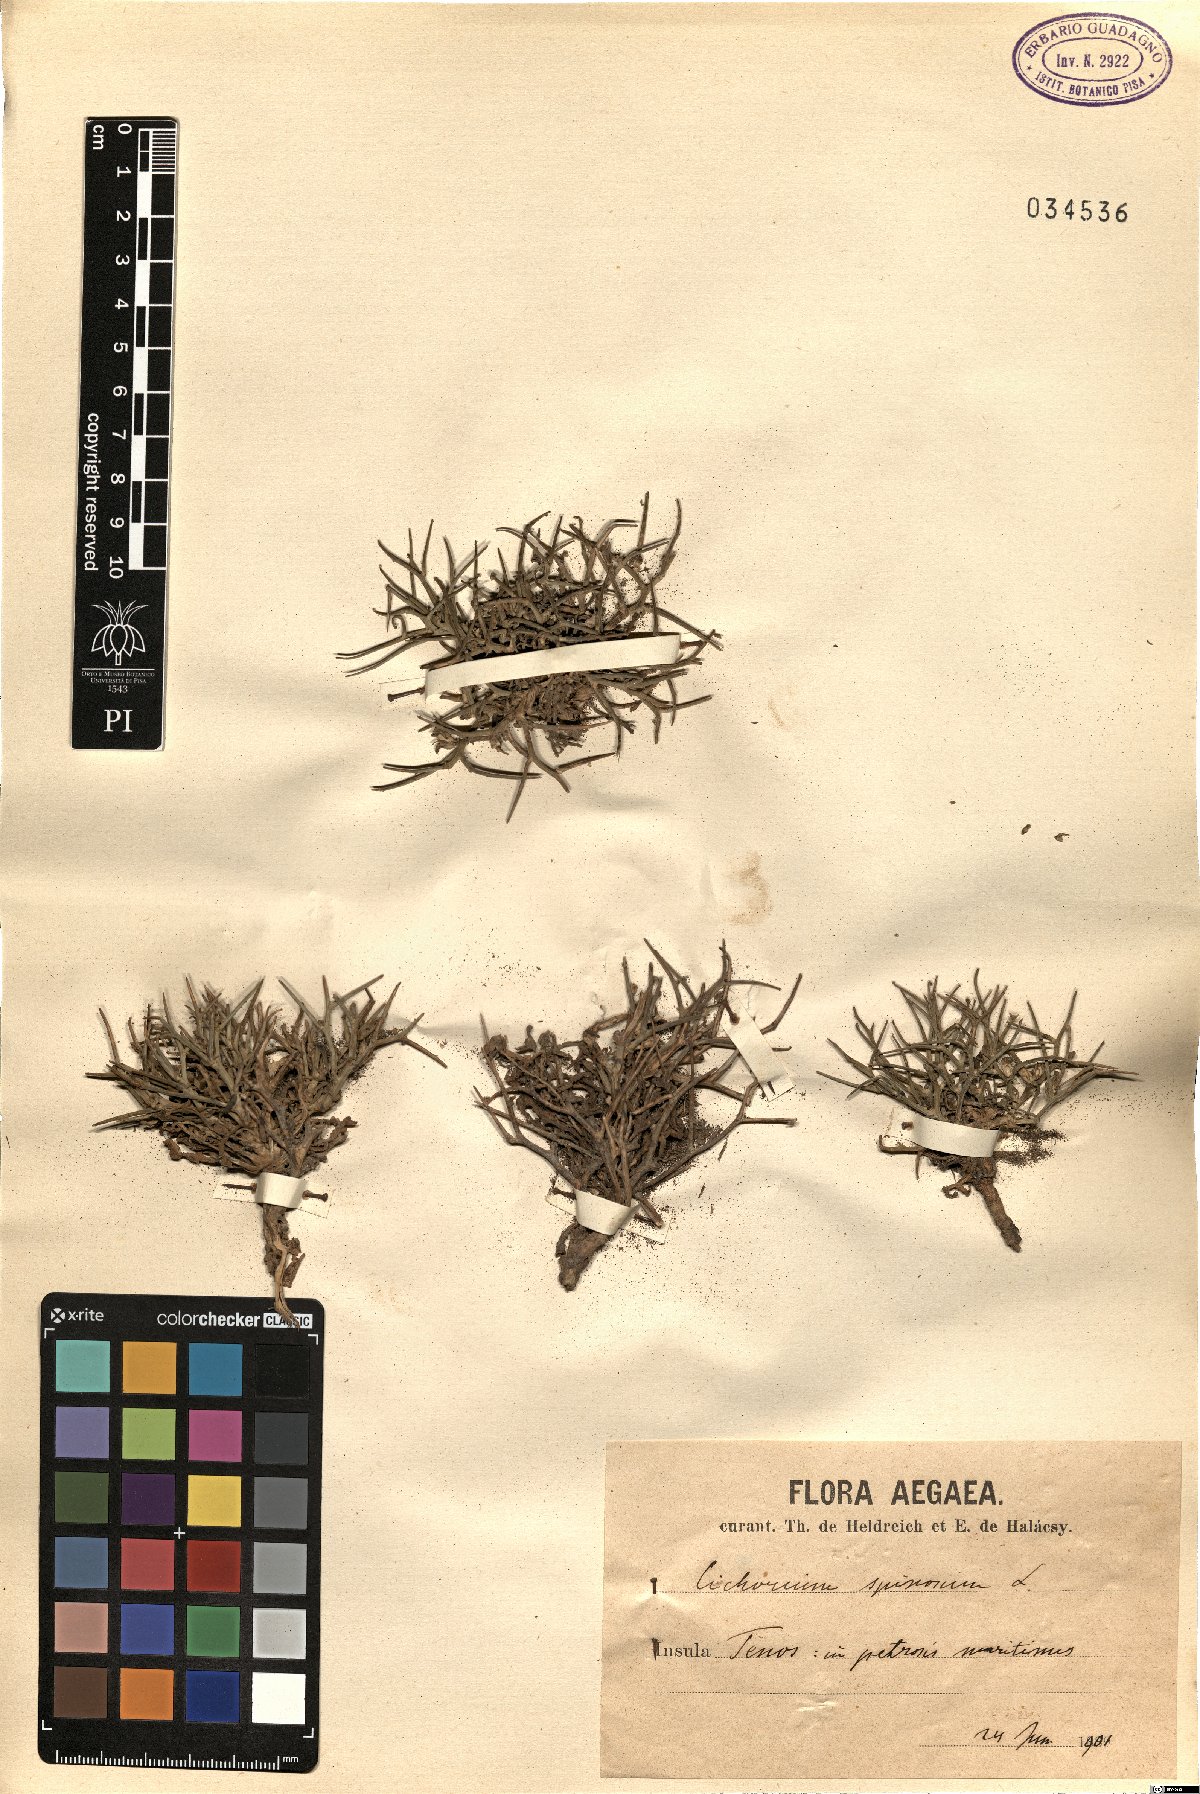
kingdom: Plantae
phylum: Tracheophyta
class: Magnoliopsida
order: Asterales
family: Asteraceae
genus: Cichorium
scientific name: Cichorium spinosum
